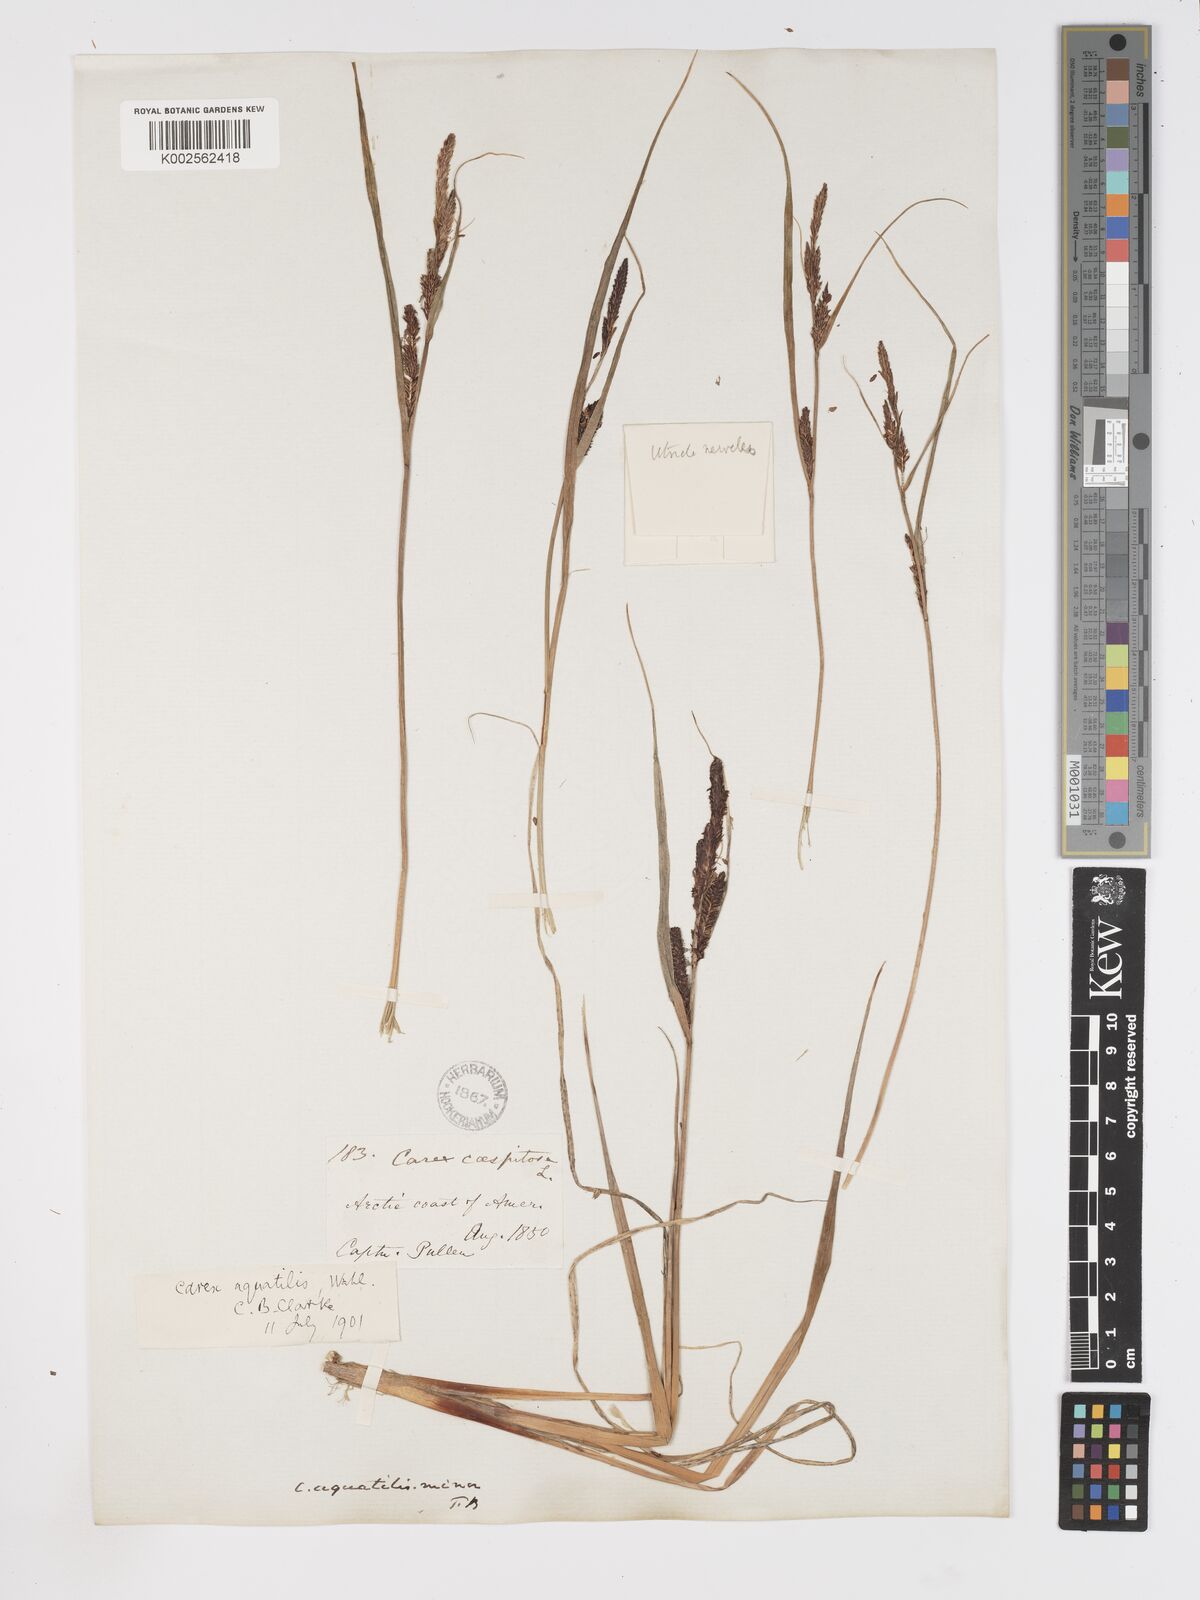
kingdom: Plantae
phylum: Tracheophyta
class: Liliopsida
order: Poales
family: Cyperaceae
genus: Carex
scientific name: Carex aquatilis
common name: Water sedge
